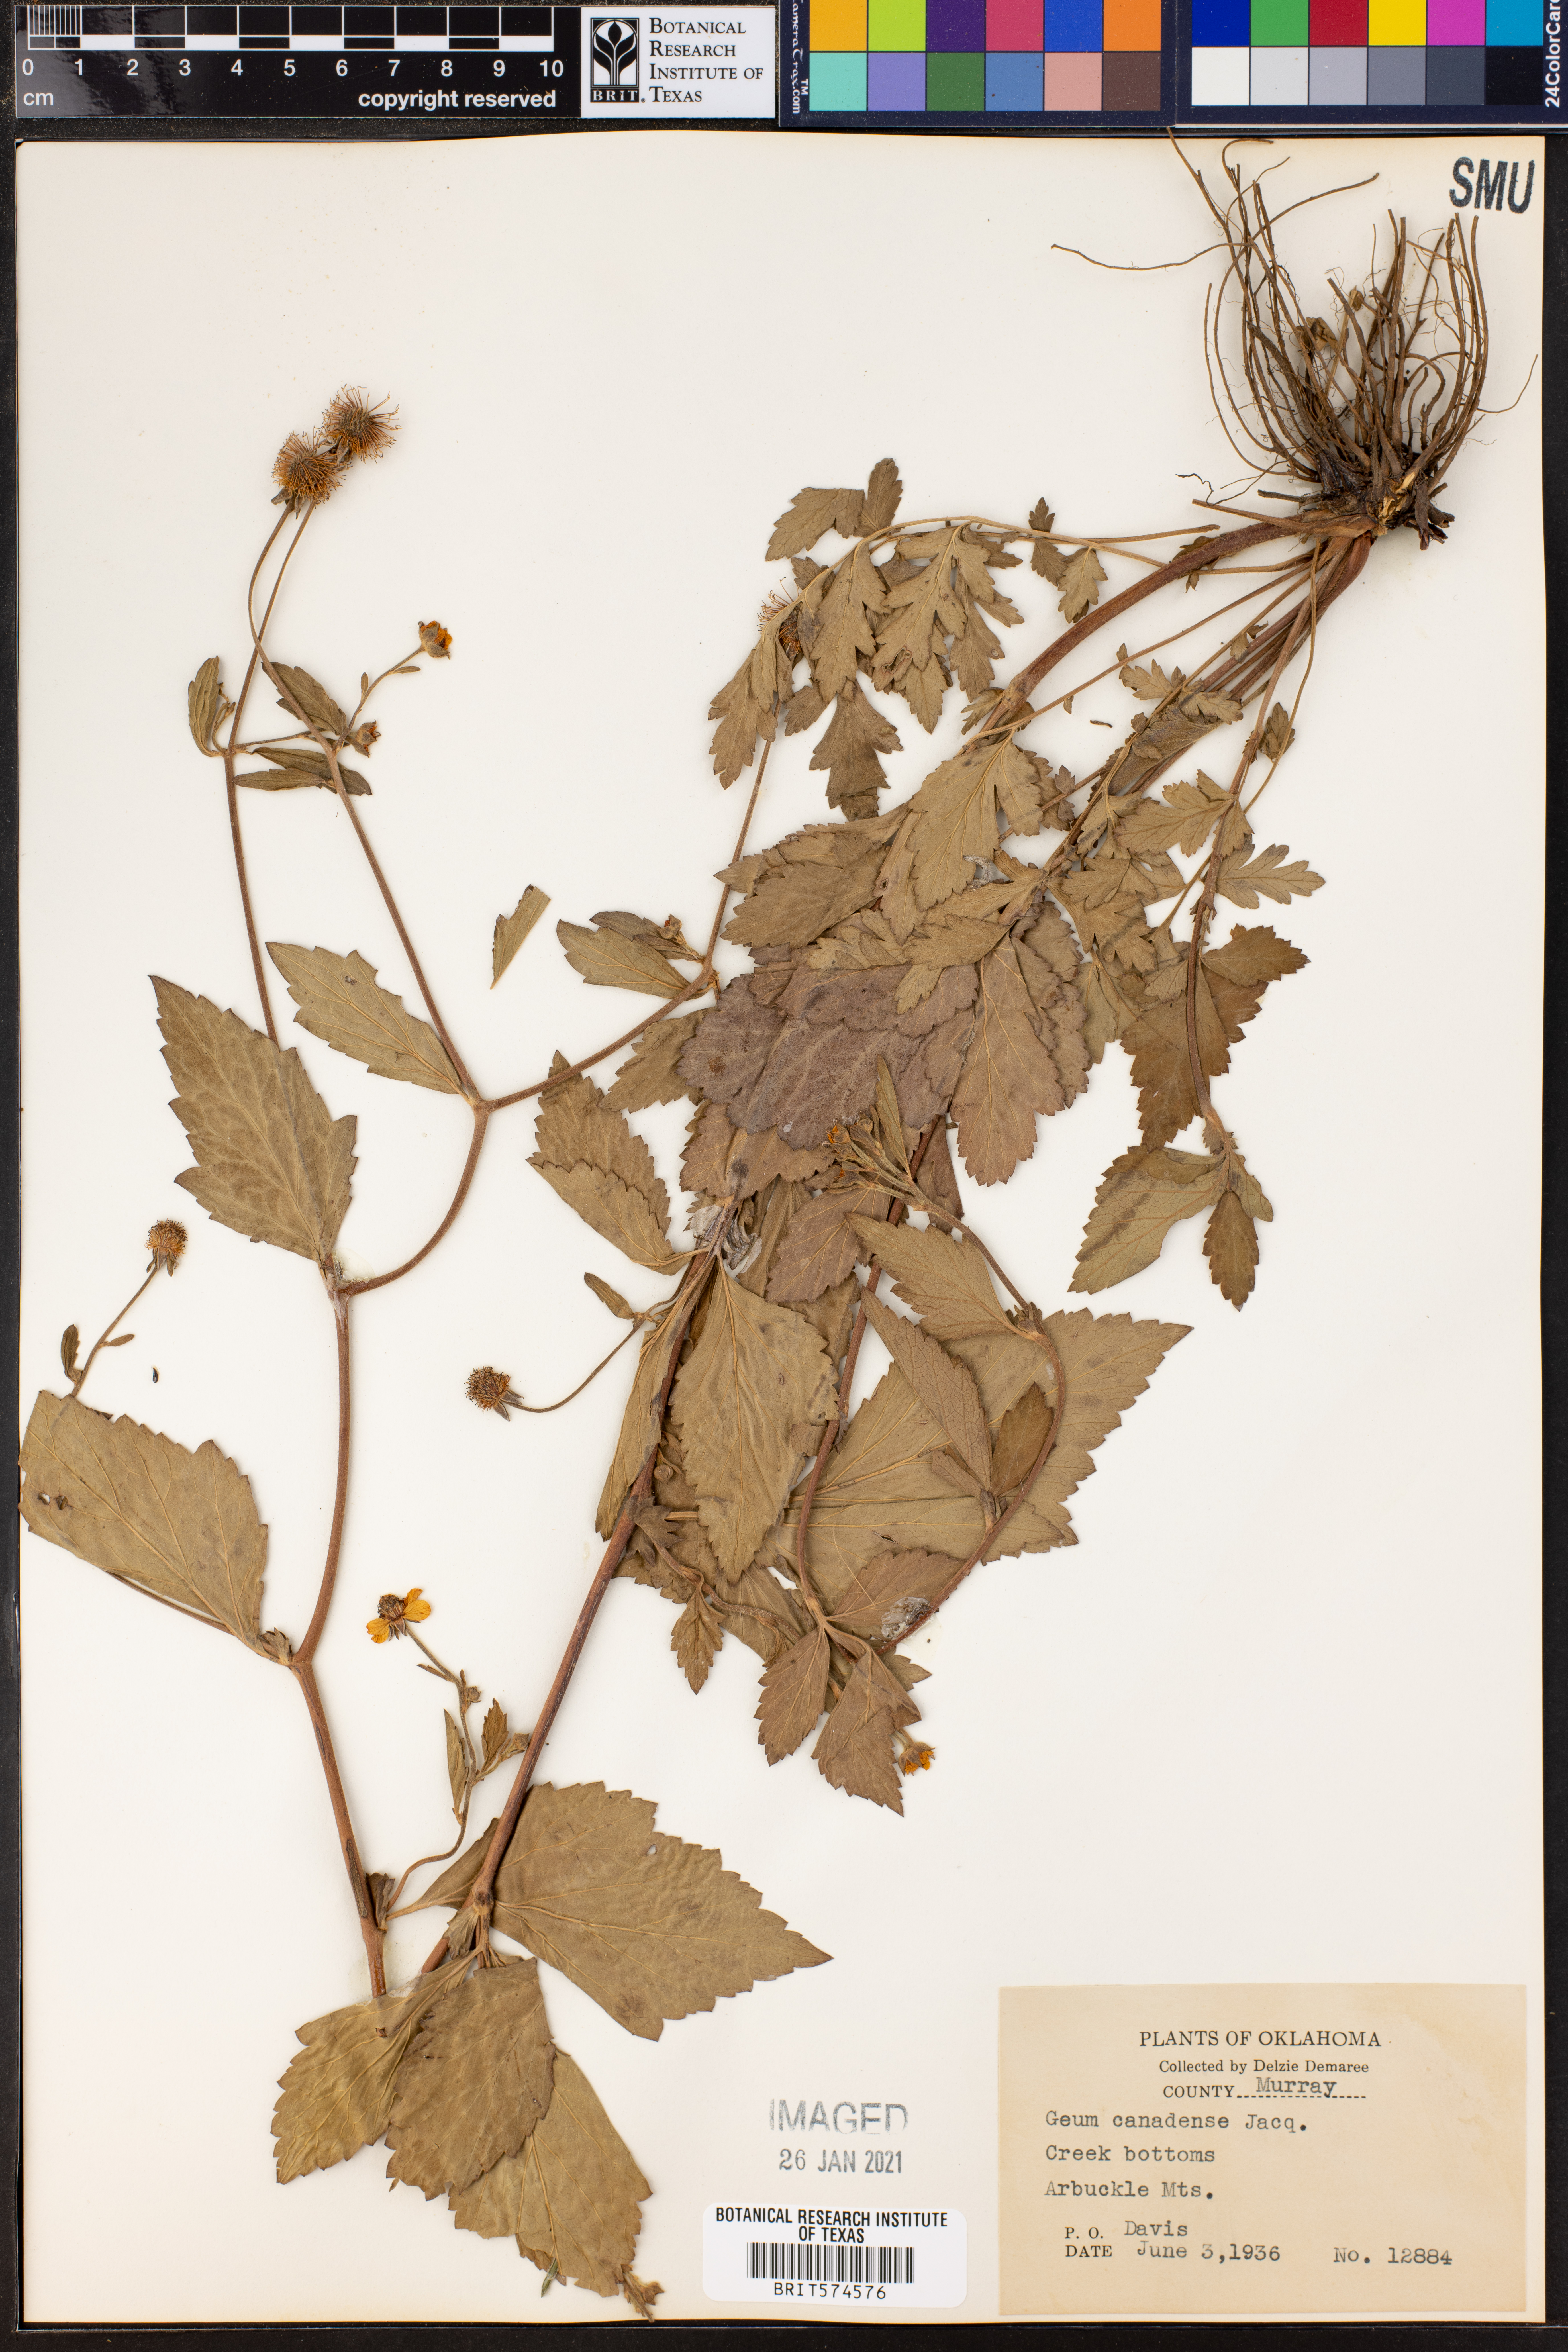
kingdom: Plantae
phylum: Tracheophyta
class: Magnoliopsida
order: Rosales
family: Rosaceae
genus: Geum
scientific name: Geum canadense
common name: White avens
